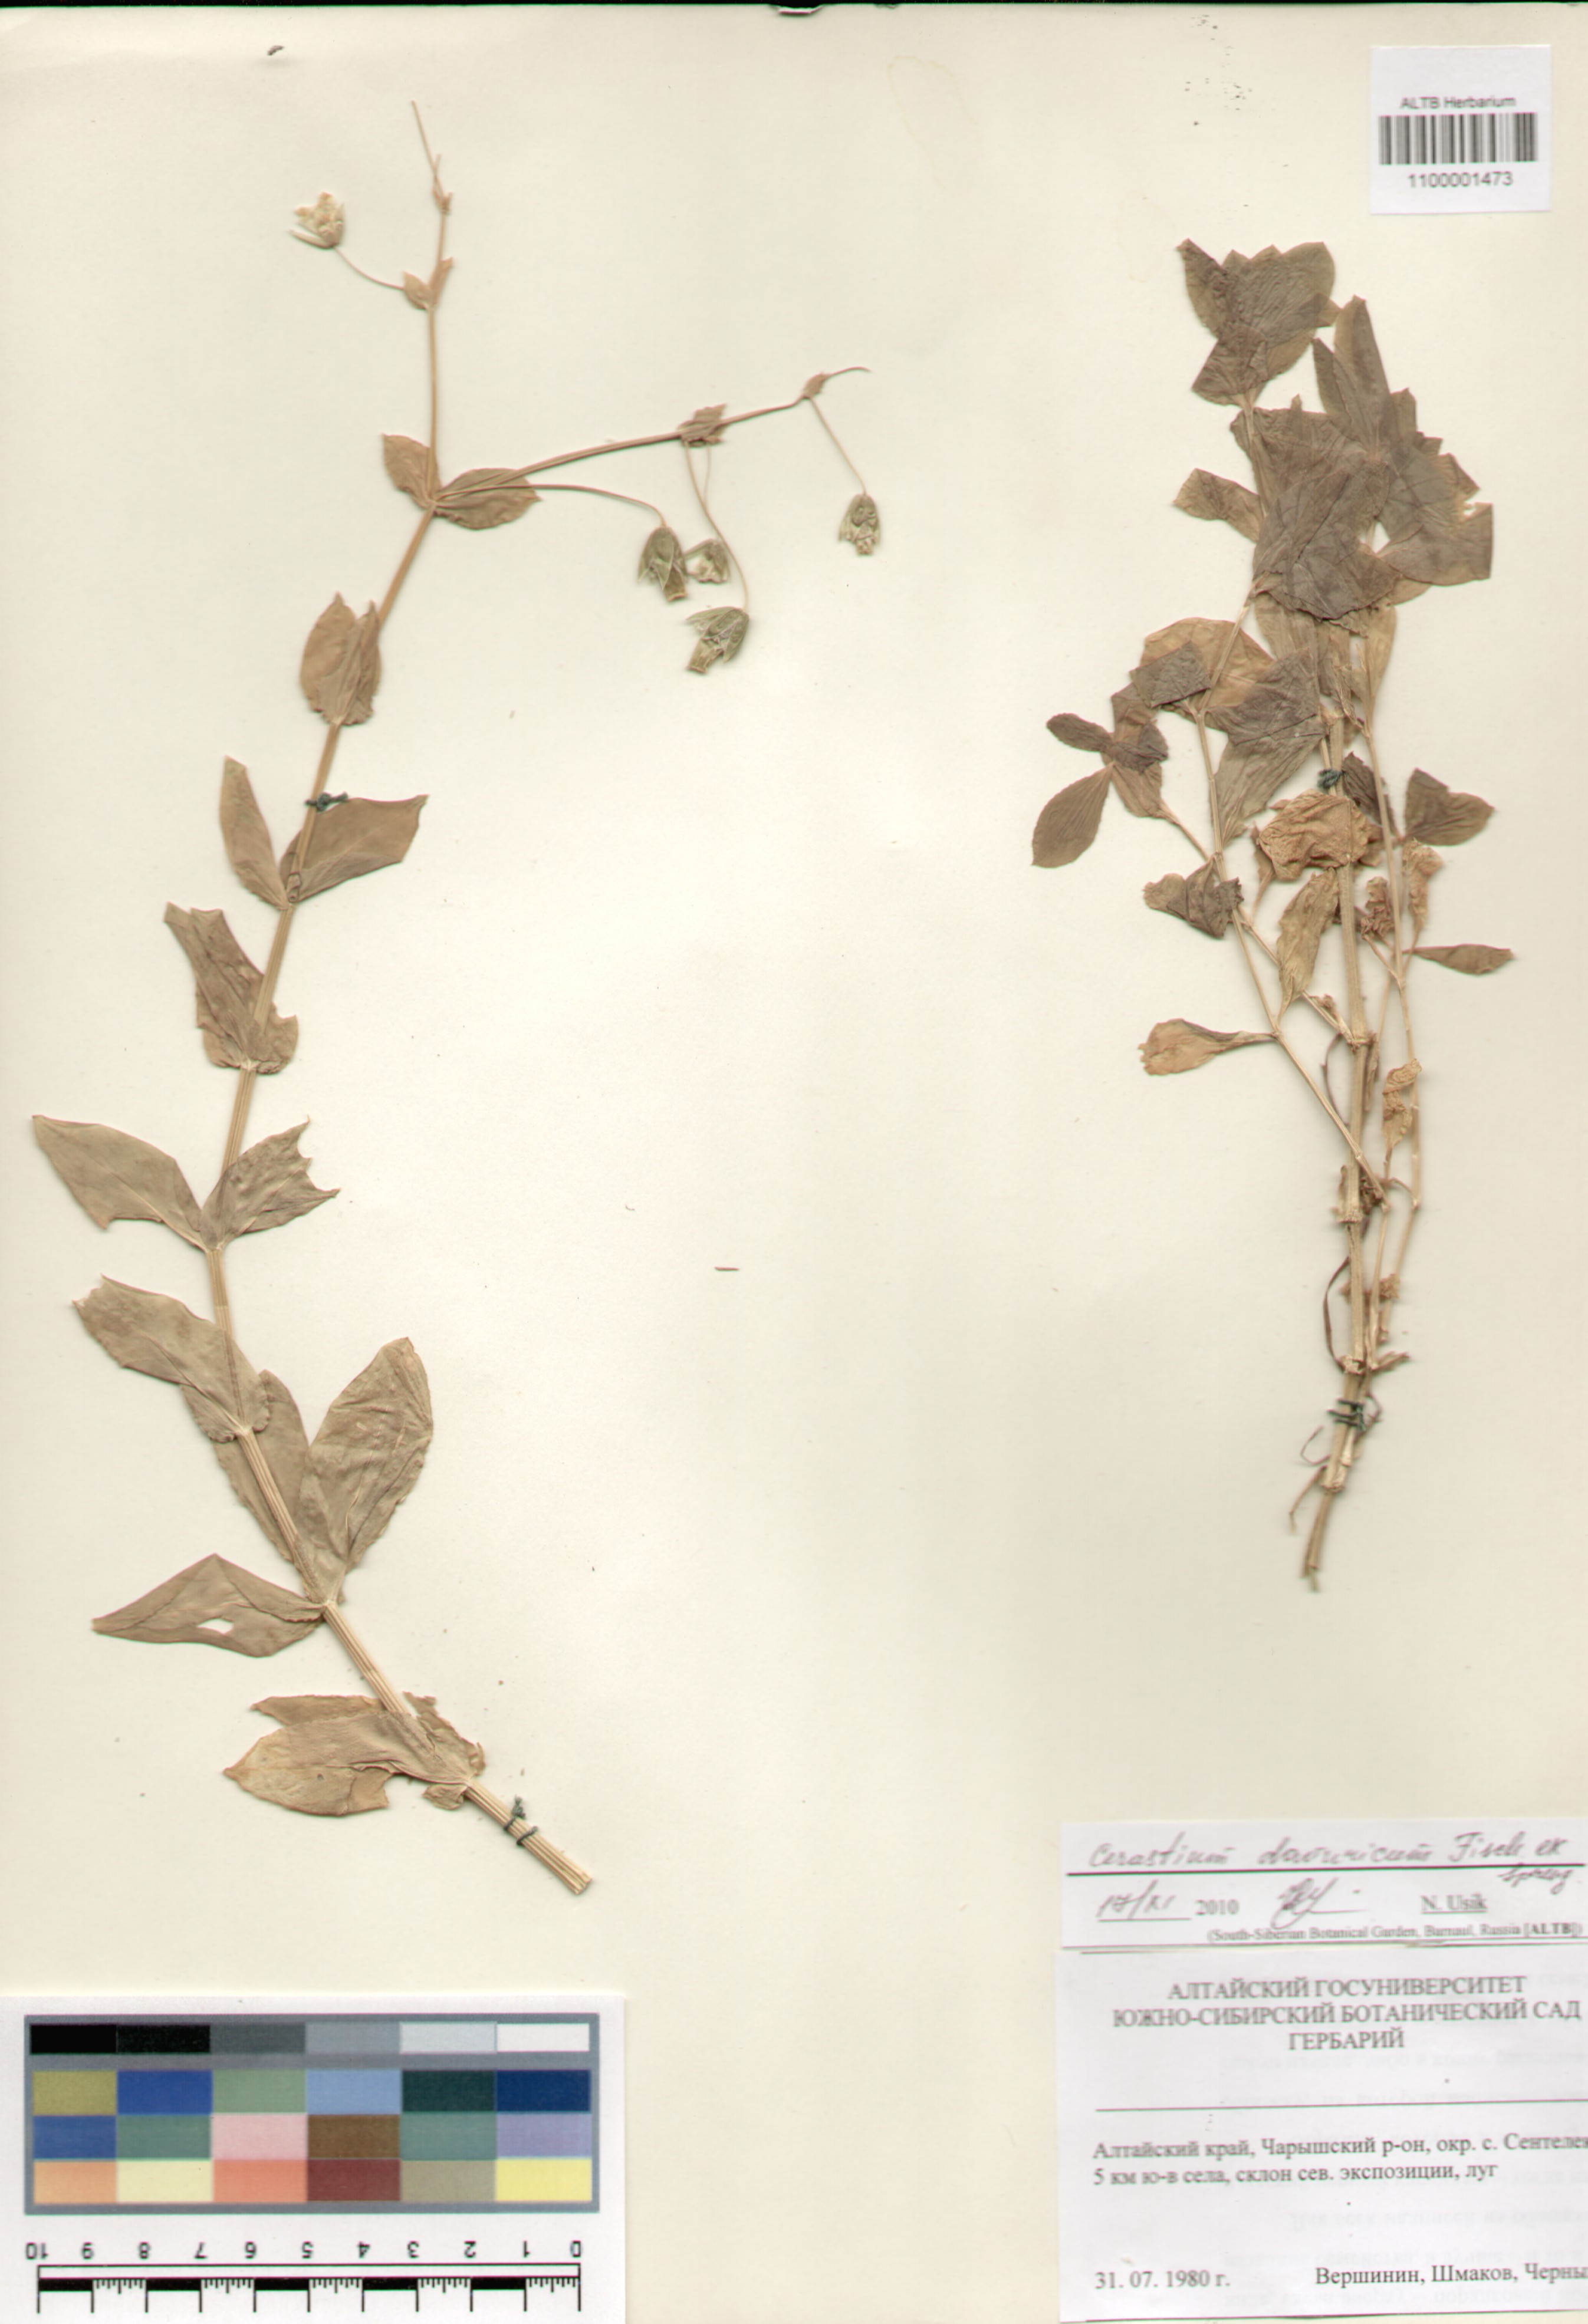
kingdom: Plantae
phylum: Tracheophyta
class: Magnoliopsida
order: Caryophyllales
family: Caryophyllaceae
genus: Dichodon
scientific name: Dichodon davuricum
